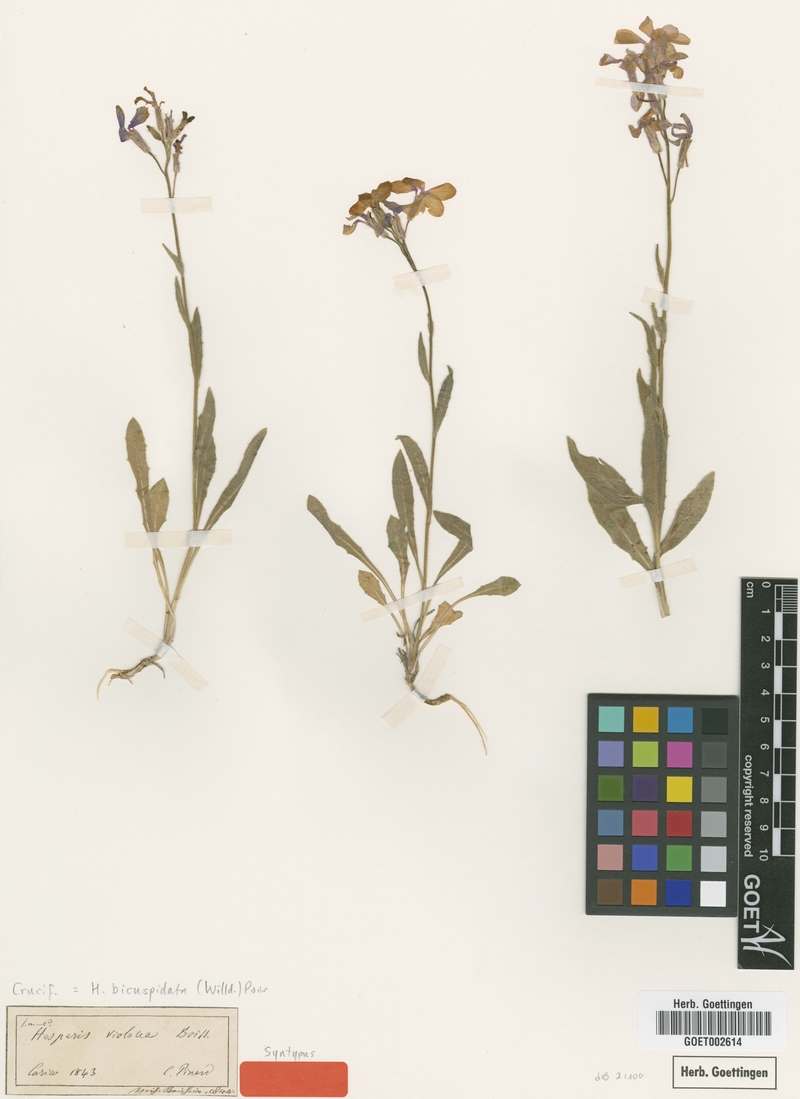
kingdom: Plantae
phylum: Tracheophyta
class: Magnoliopsida
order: Brassicales
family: Brassicaceae
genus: Hesperis
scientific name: Hesperis bicuspidata
